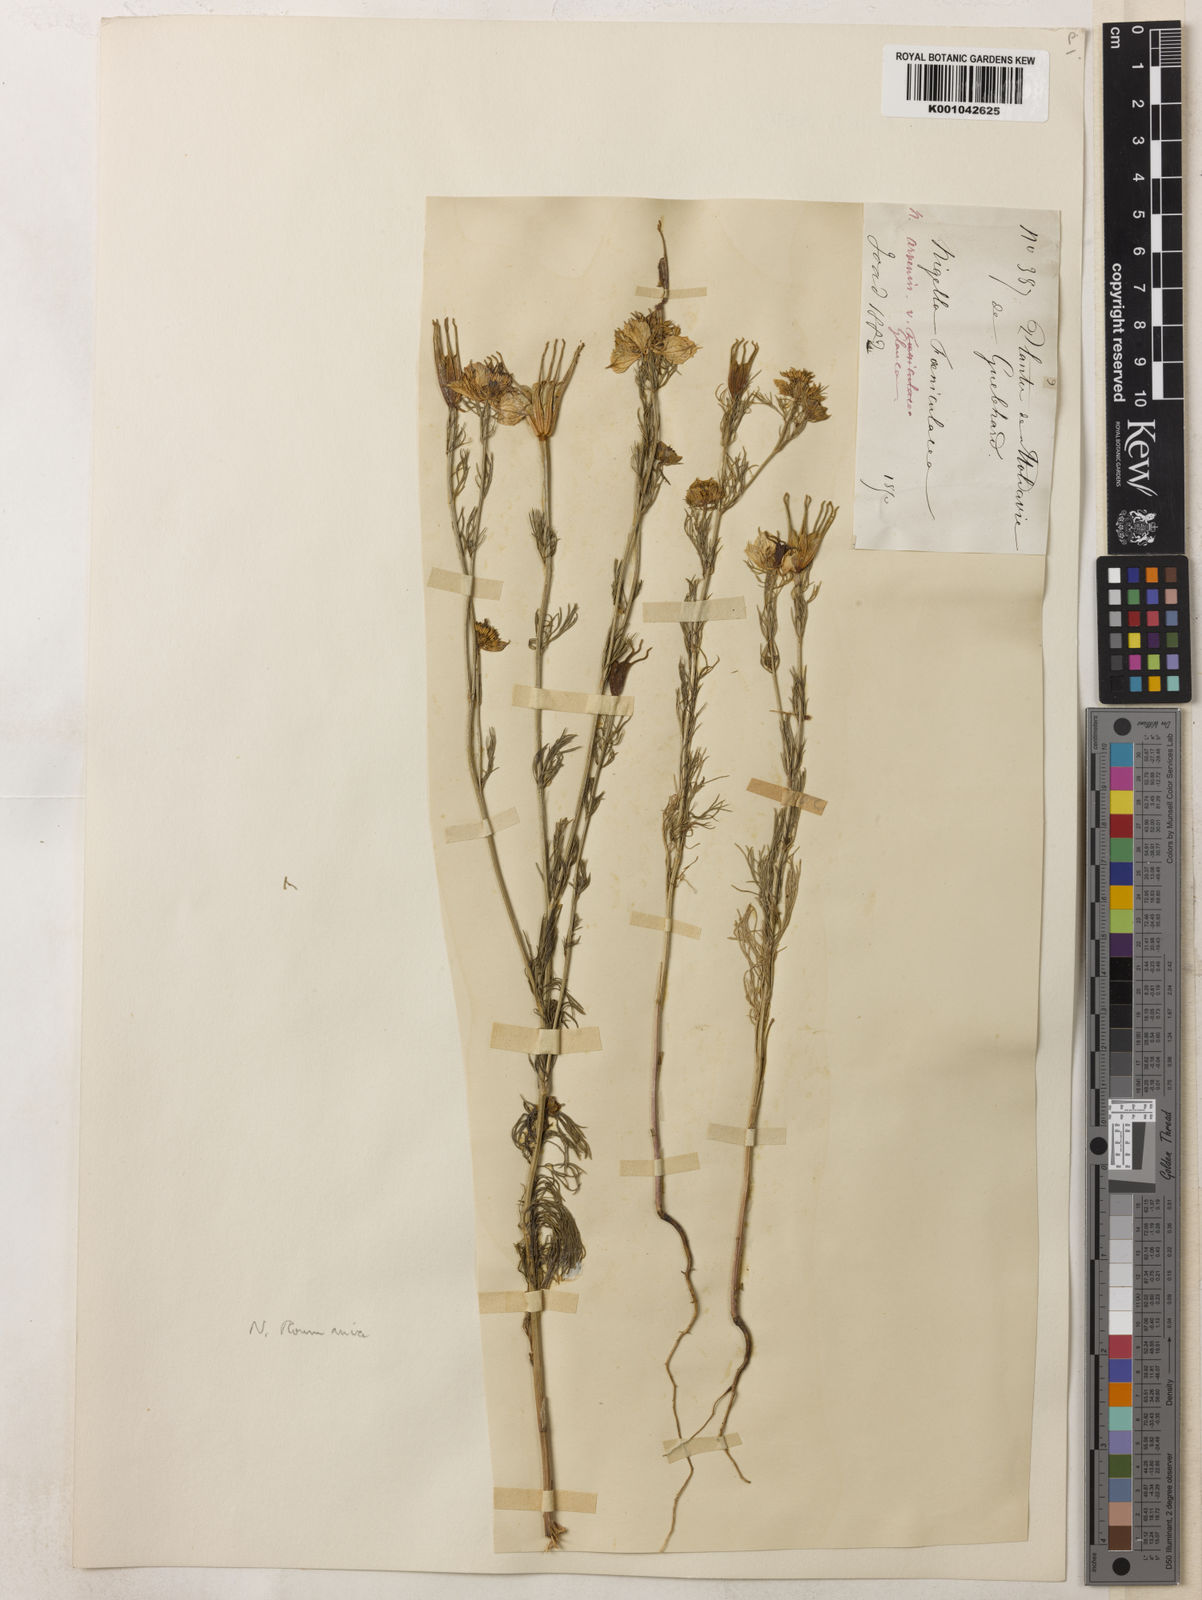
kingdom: Plantae
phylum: Tracheophyta
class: Magnoliopsida
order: Ranunculales
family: Ranunculaceae
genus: Nigella
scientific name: Nigella arvensis
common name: Wild fennel-flower
